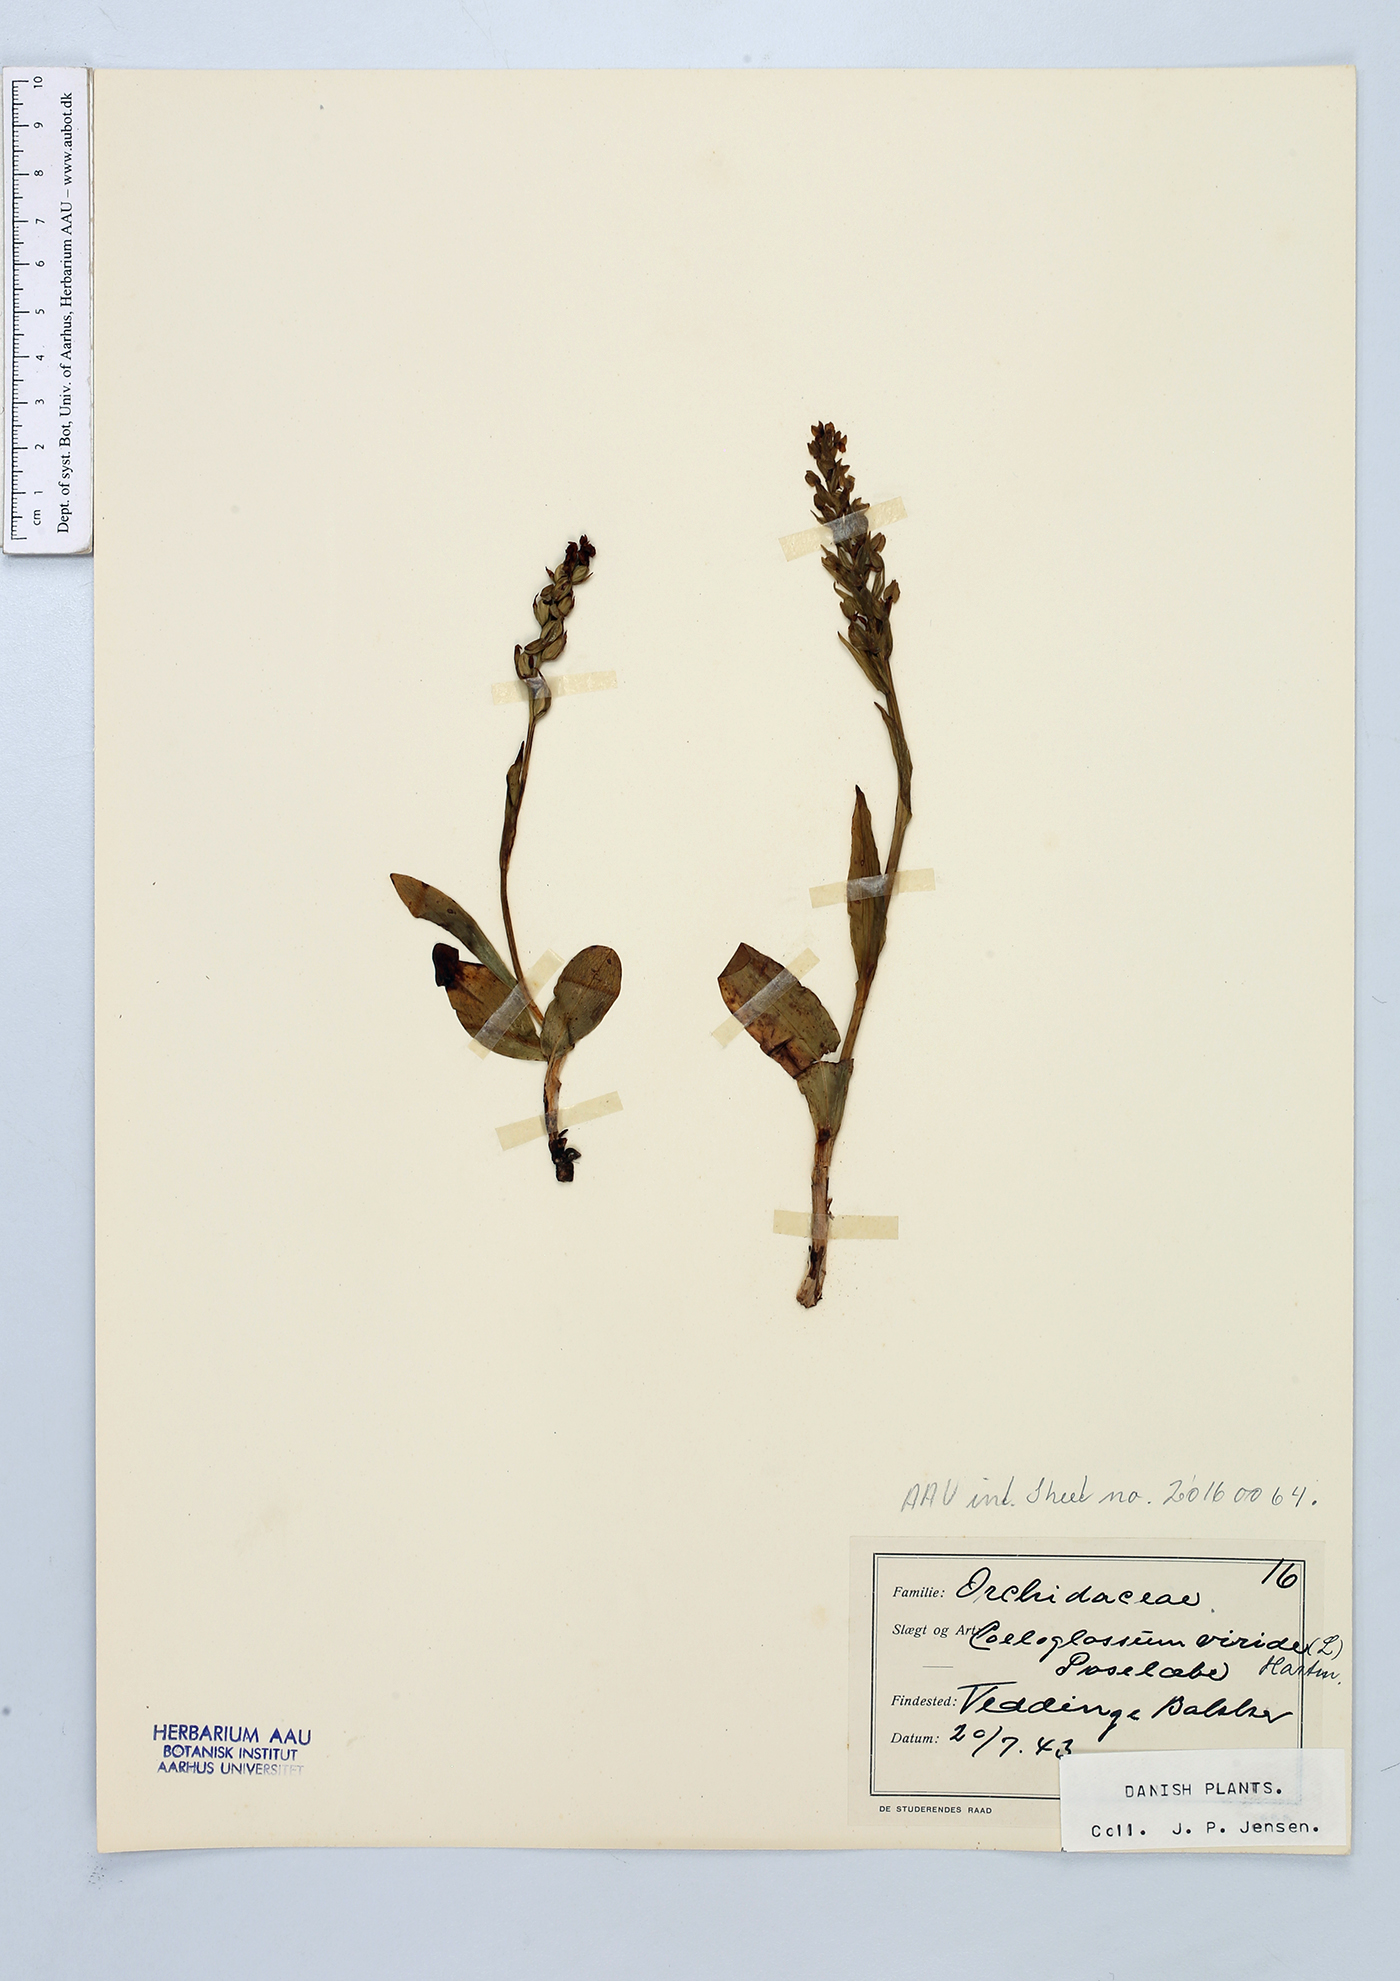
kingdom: Plantae
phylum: Tracheophyta
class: Liliopsida
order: Asparagales
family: Orchidaceae
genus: Dactylorhiza
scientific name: Dactylorhiza viridis
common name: Longbract frog orchid
